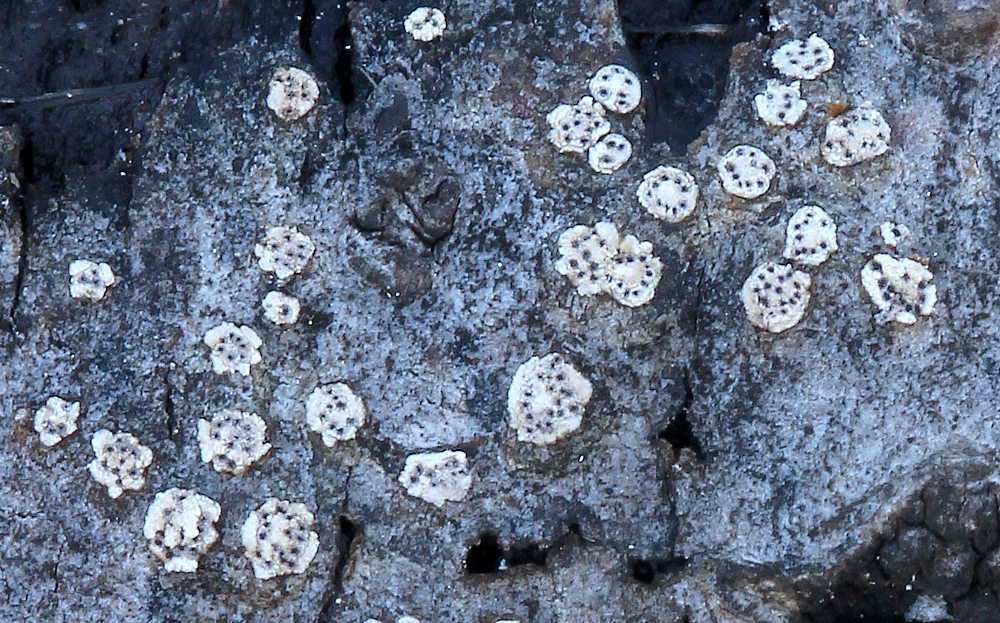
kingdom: Fungi
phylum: Ascomycota
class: Sordariomycetes
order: Diaporthales
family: Valsaceae
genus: Cytospora
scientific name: Cytospora nivea
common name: hvidskivet kulknippe
